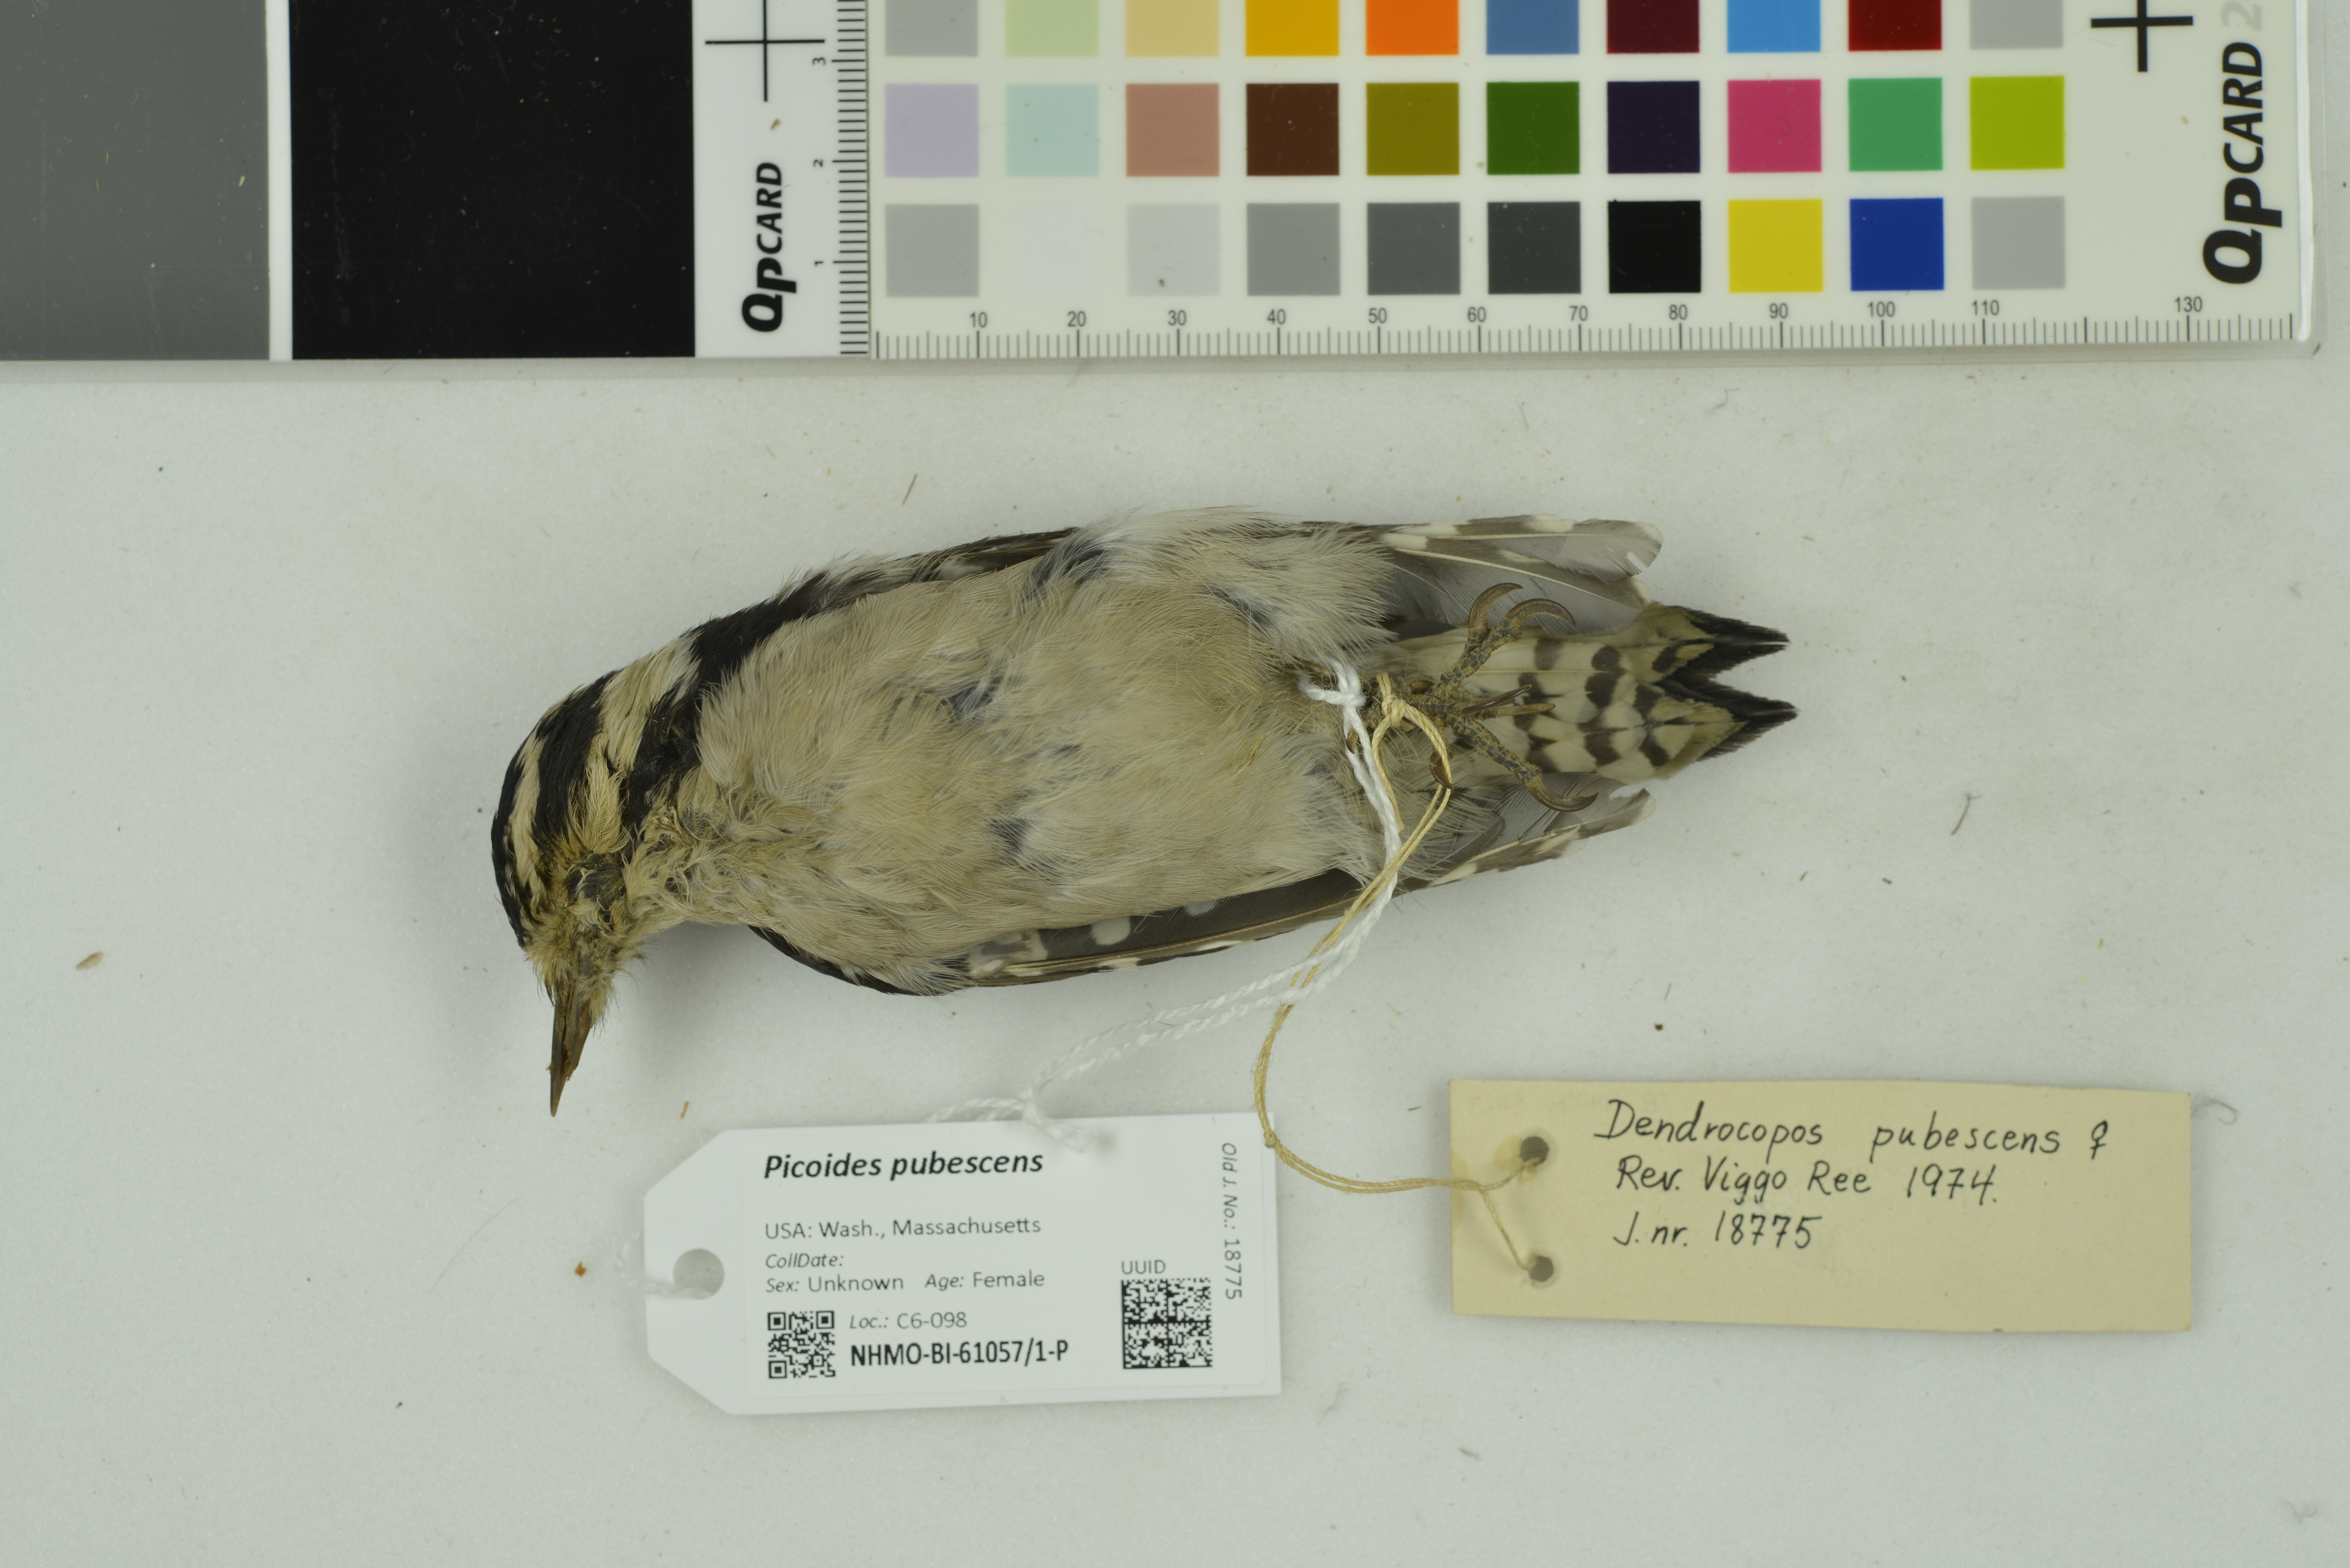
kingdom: Animalia
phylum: Chordata
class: Aves
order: Piciformes
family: Picidae
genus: Dryobates
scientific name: Dryobates pubescens
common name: Downy woodpecker
